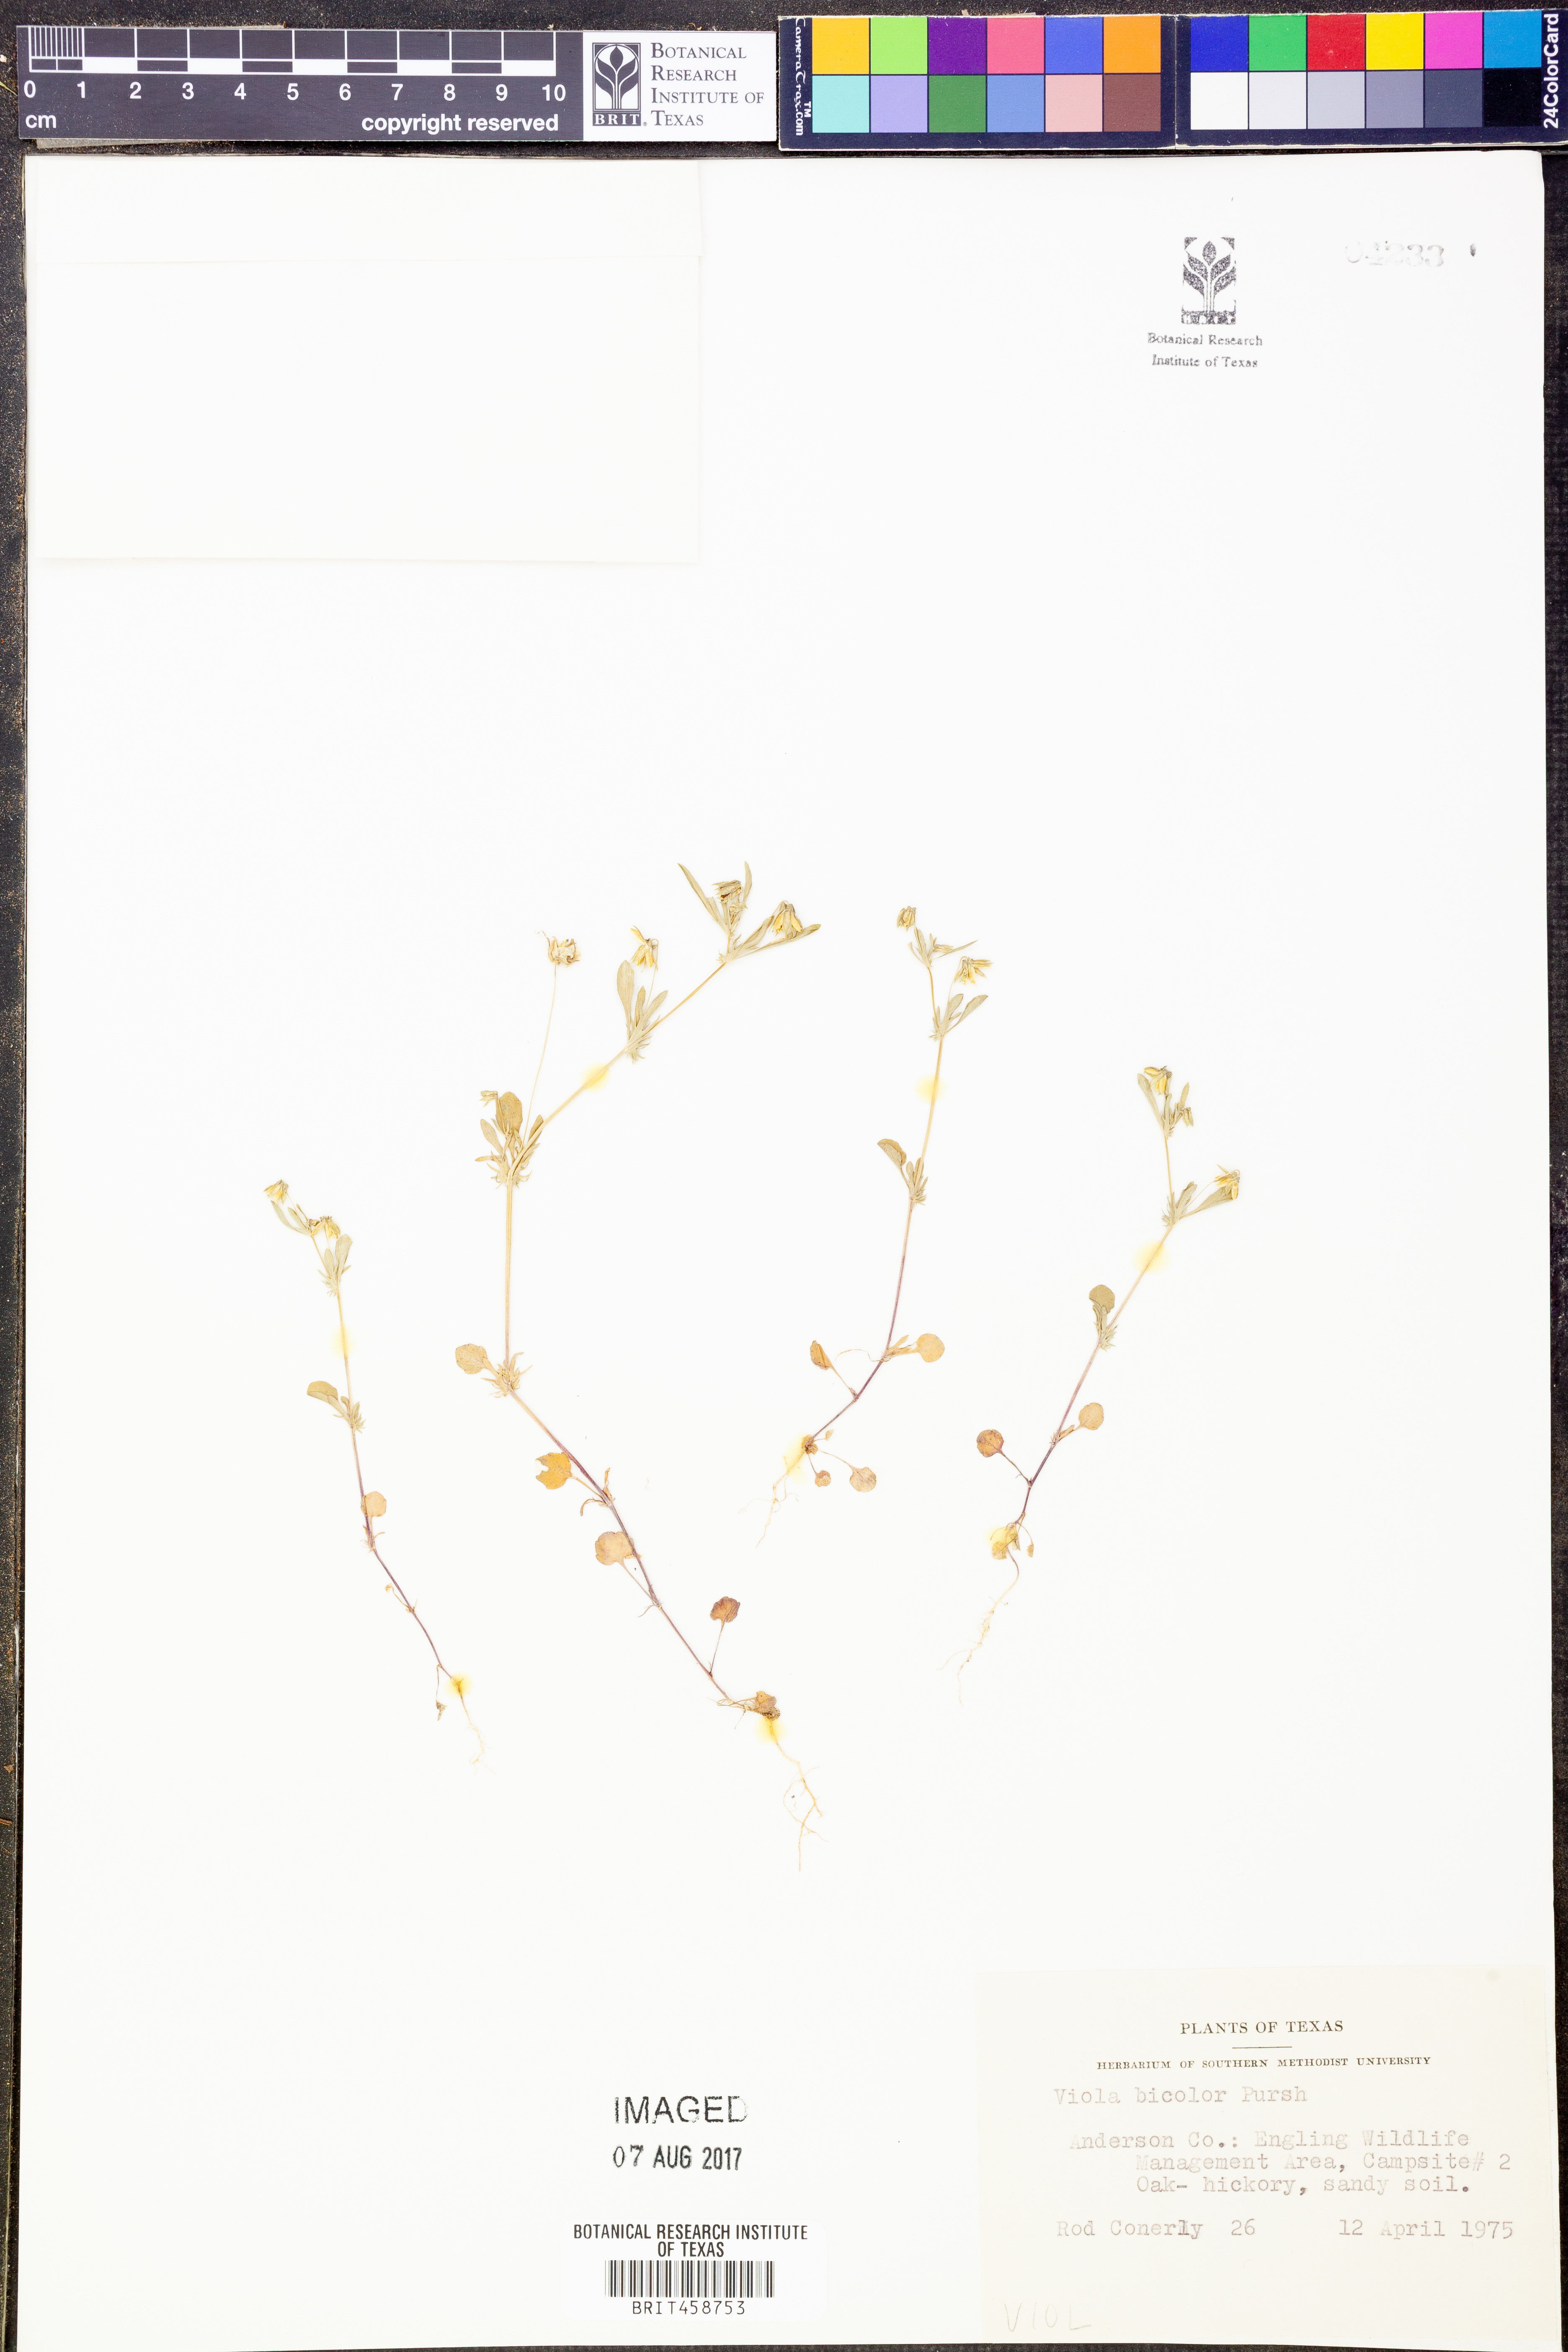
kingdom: Plantae
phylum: Tracheophyta
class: Magnoliopsida
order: Malpighiales
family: Violaceae
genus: Viola
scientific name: Viola rafinesquei
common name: American field pansy
